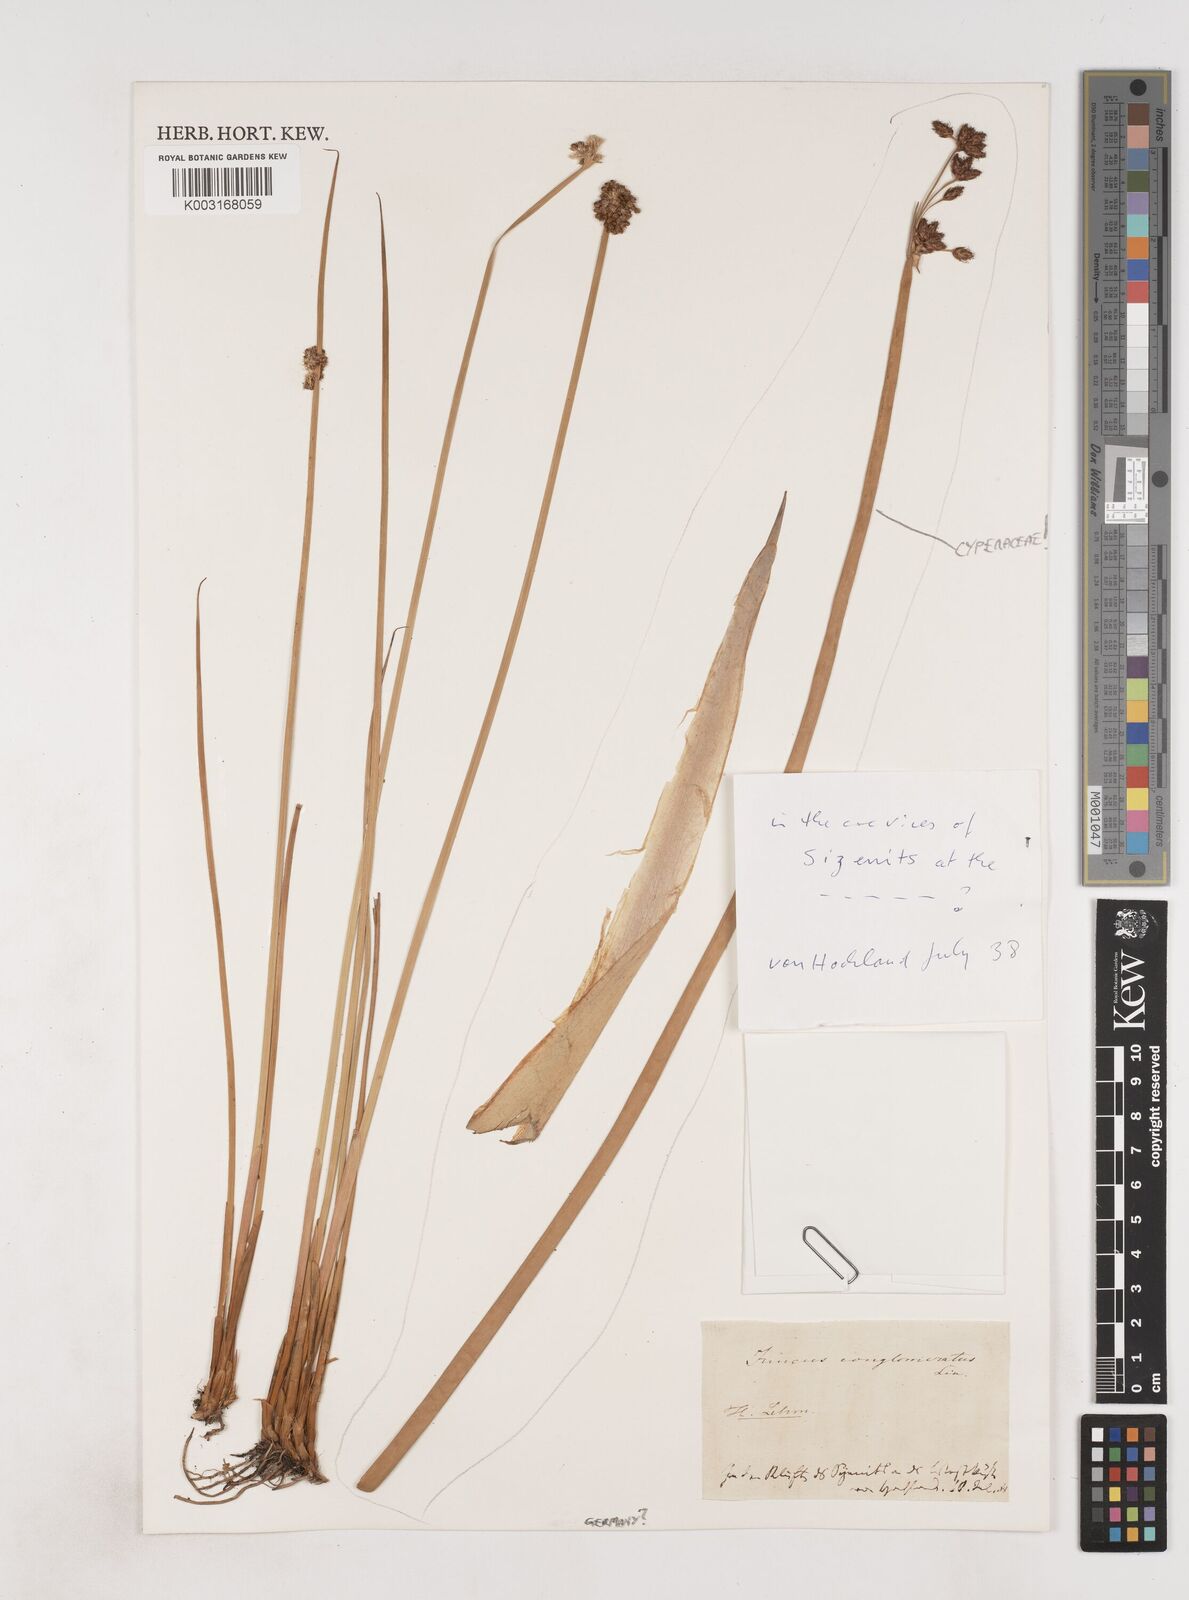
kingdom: Plantae
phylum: Tracheophyta
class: Liliopsida
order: Poales
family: Juncaceae
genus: Juncus
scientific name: Juncus conglomeratus
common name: Compact rush
